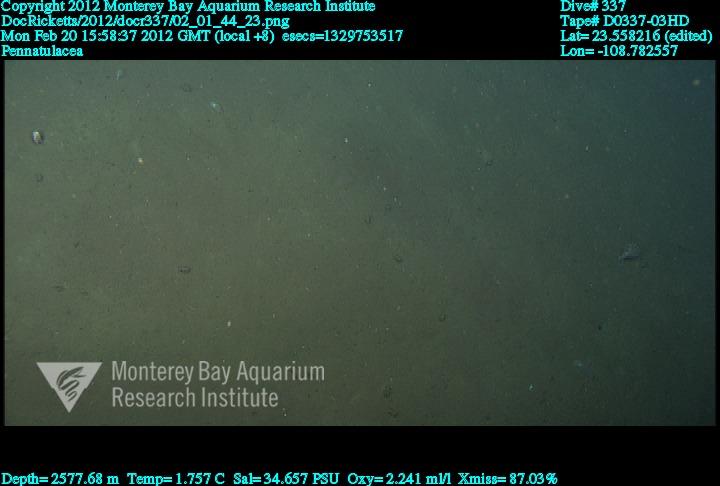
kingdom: Animalia
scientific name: Animalia
